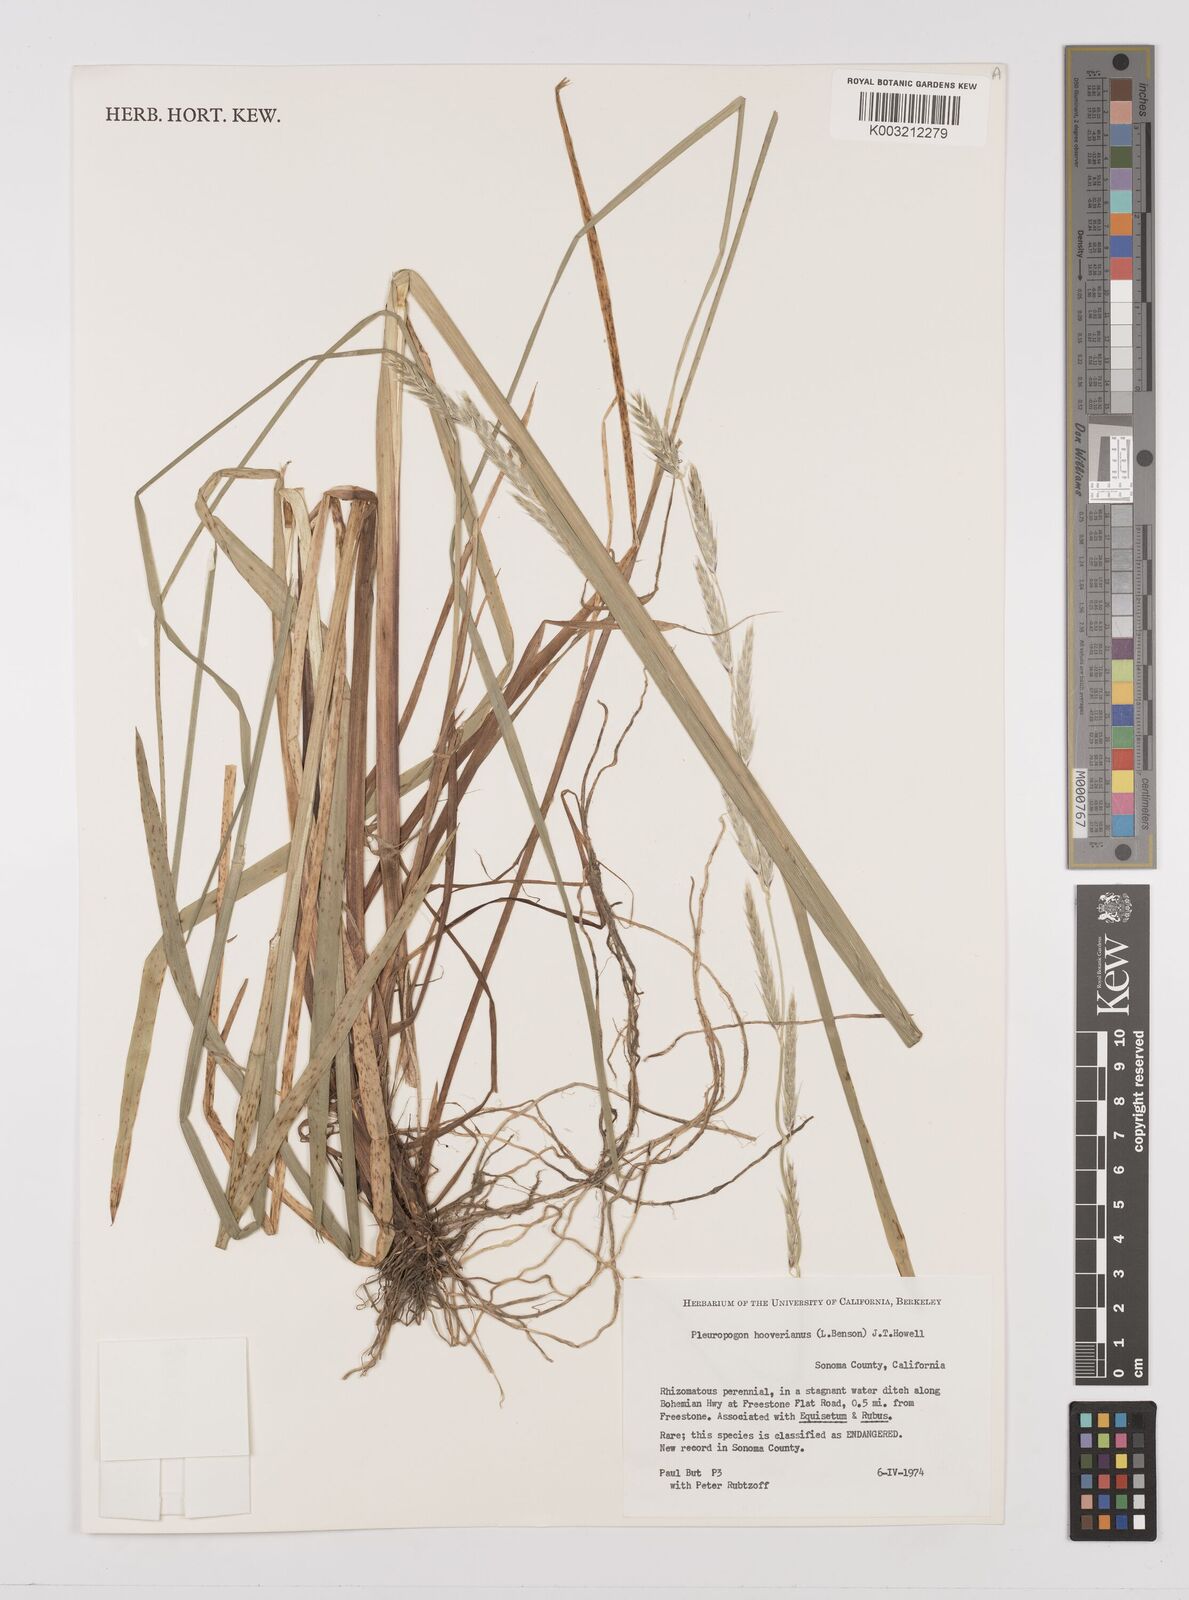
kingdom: Plantae
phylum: Tracheophyta
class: Liliopsida
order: Poales
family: Poaceae
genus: Pleuropogon
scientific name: Pleuropogon hooverianus
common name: North coast semaphore grass
